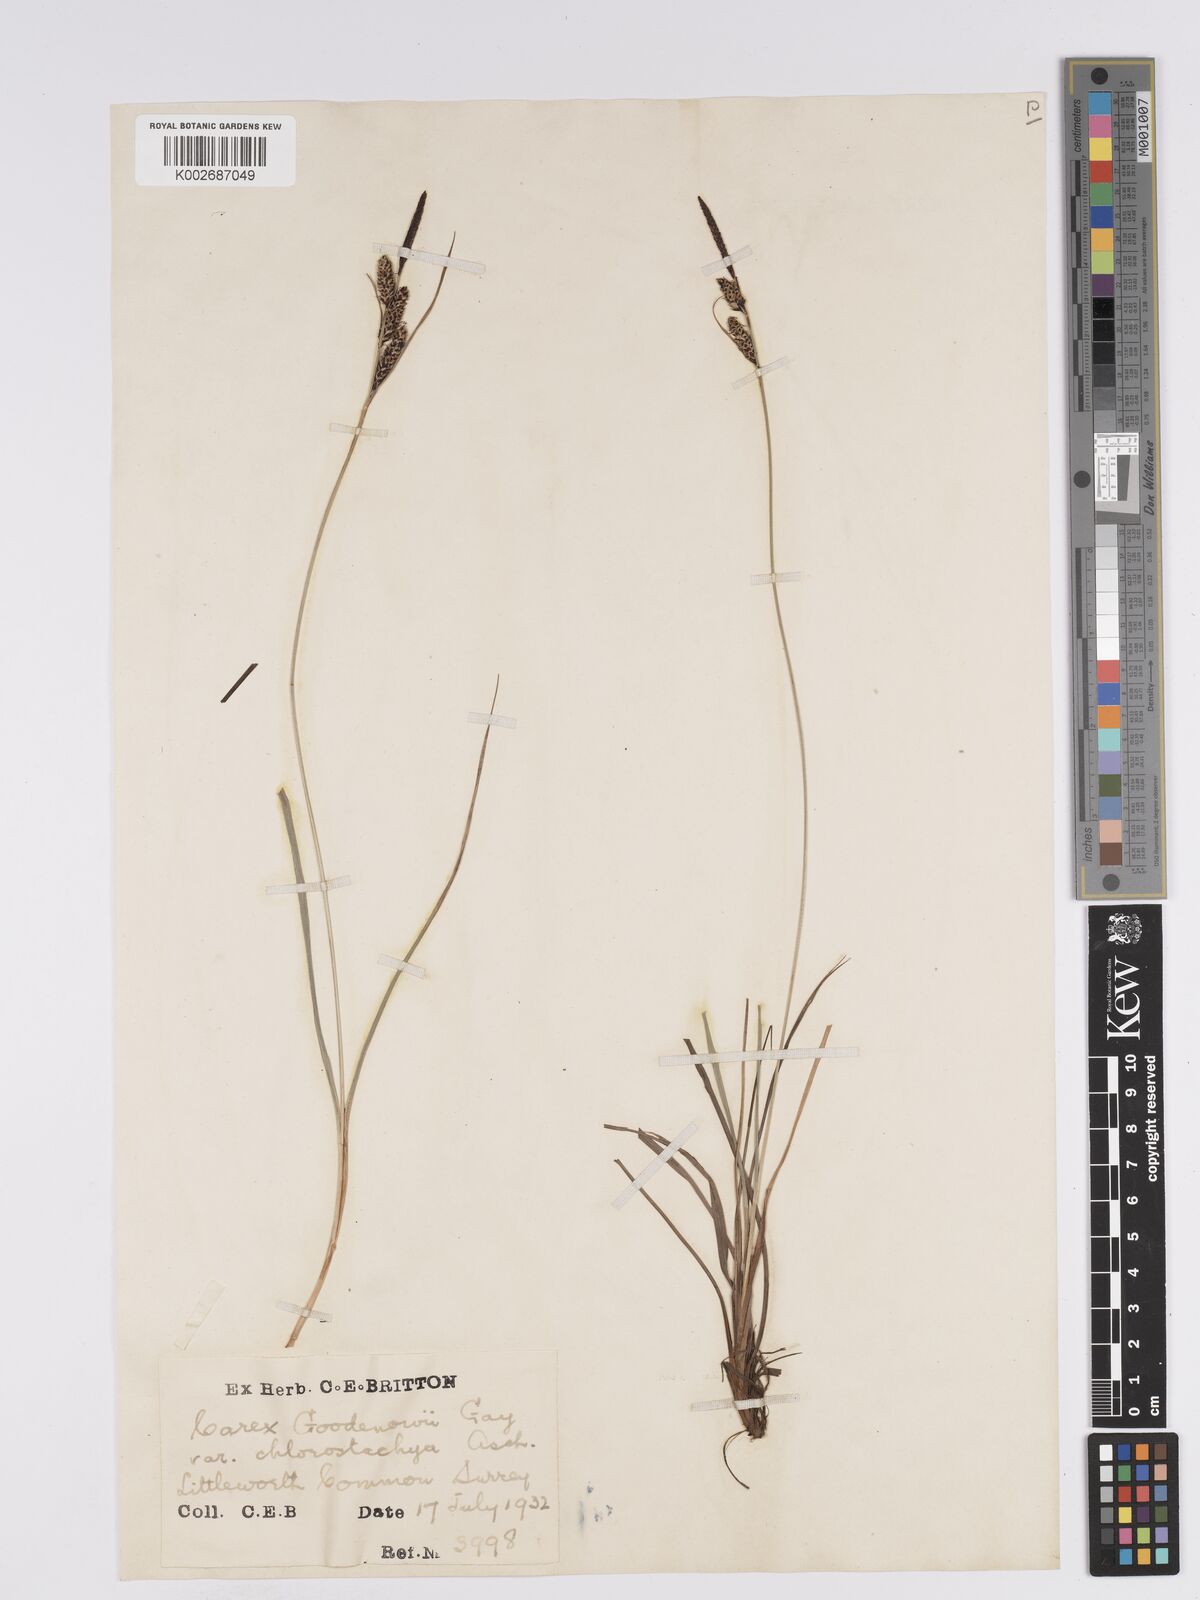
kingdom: Plantae
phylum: Tracheophyta
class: Liliopsida
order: Poales
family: Cyperaceae
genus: Carex
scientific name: Carex nigra
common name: Common sedge
